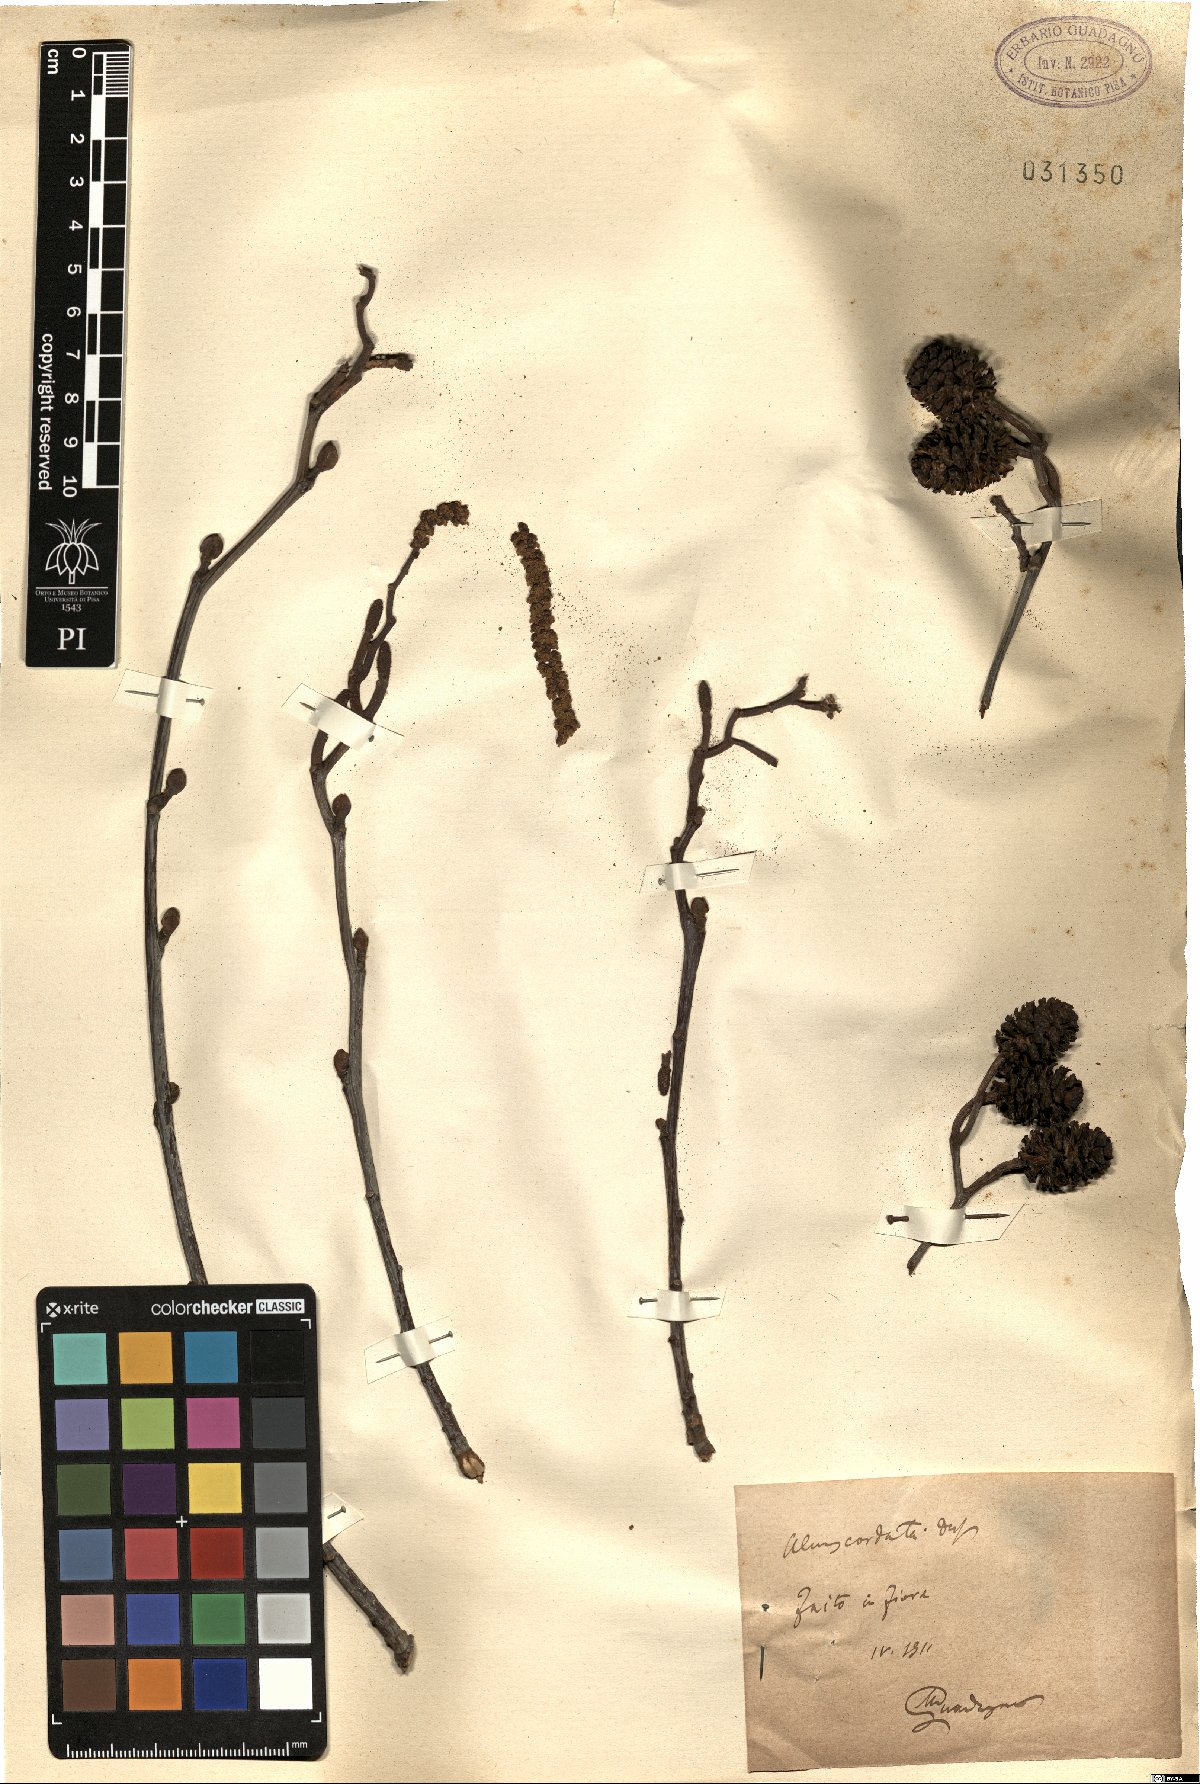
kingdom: Plantae
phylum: Tracheophyta
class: Magnoliopsida
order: Fagales
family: Betulaceae
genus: Alnus
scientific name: Alnus cordata
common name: Italian alder
